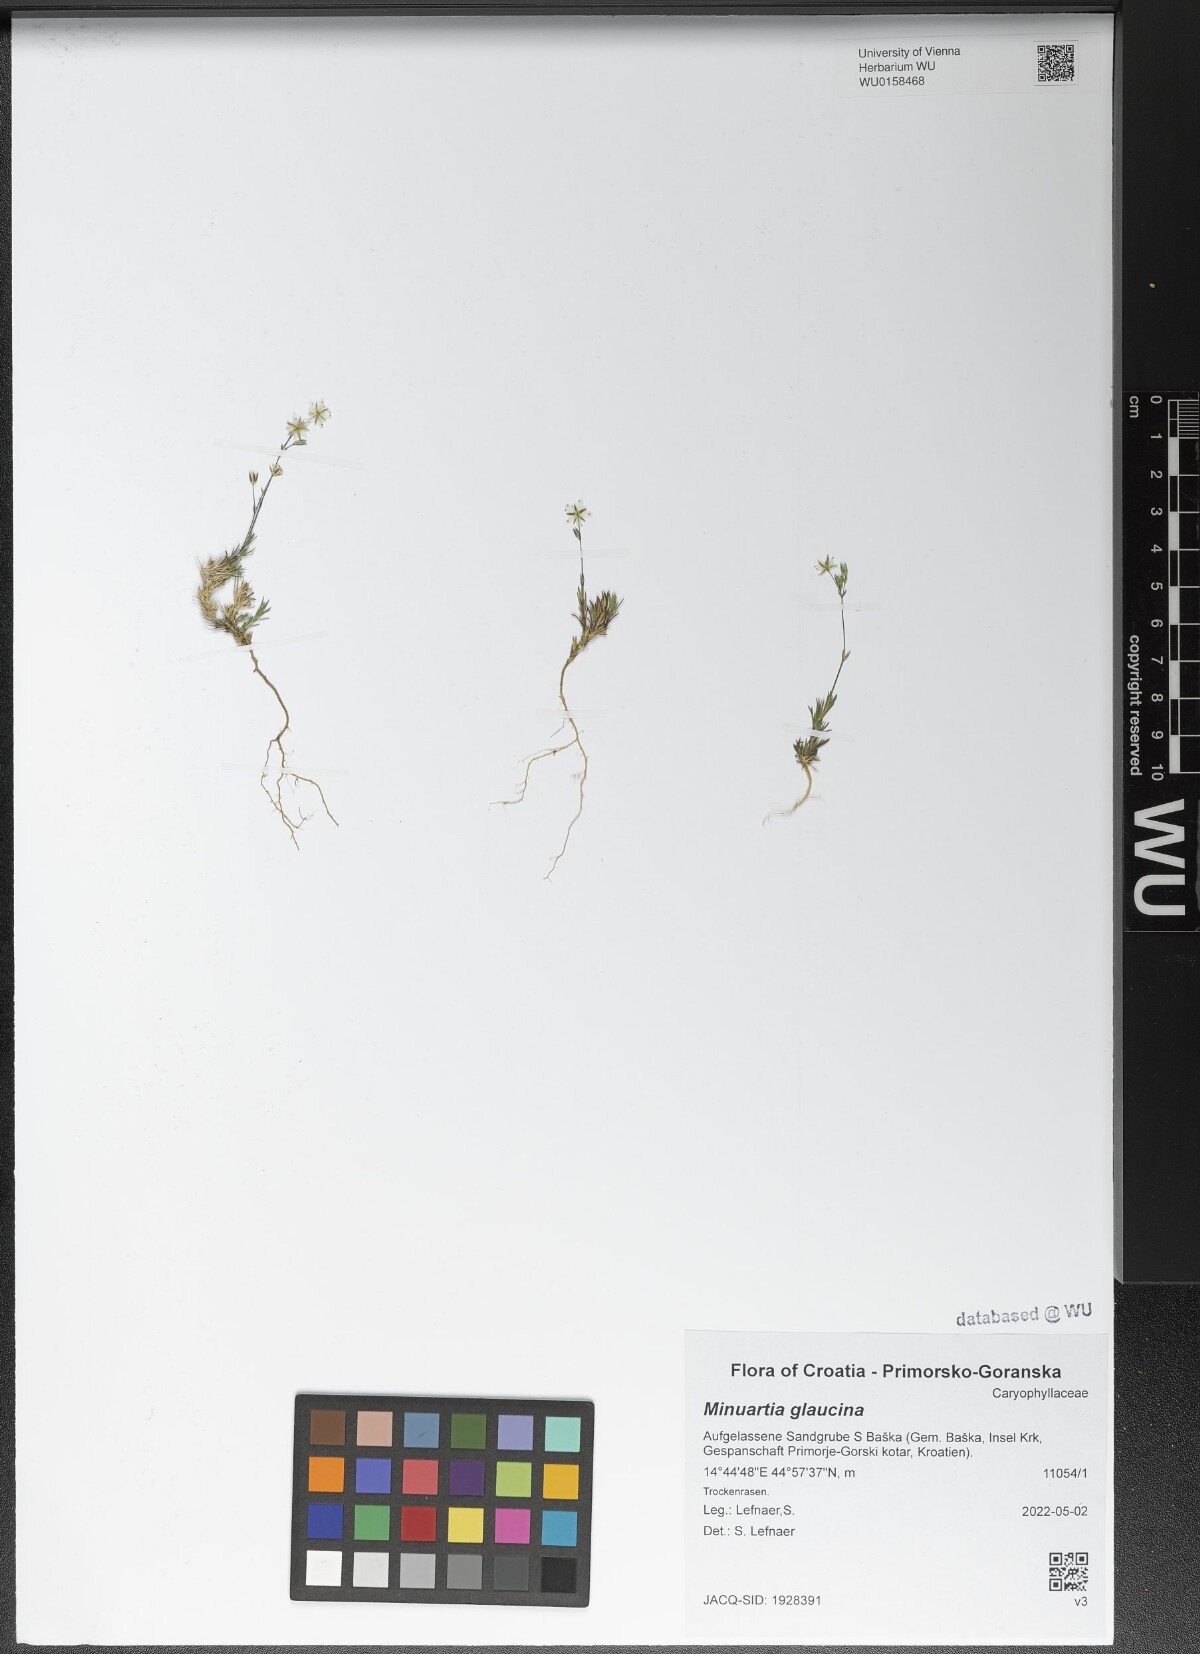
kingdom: Plantae
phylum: Tracheophyta
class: Magnoliopsida
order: Caryophyllales
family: Caryophyllaceae
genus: Sabulina
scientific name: Sabulina glaucina
